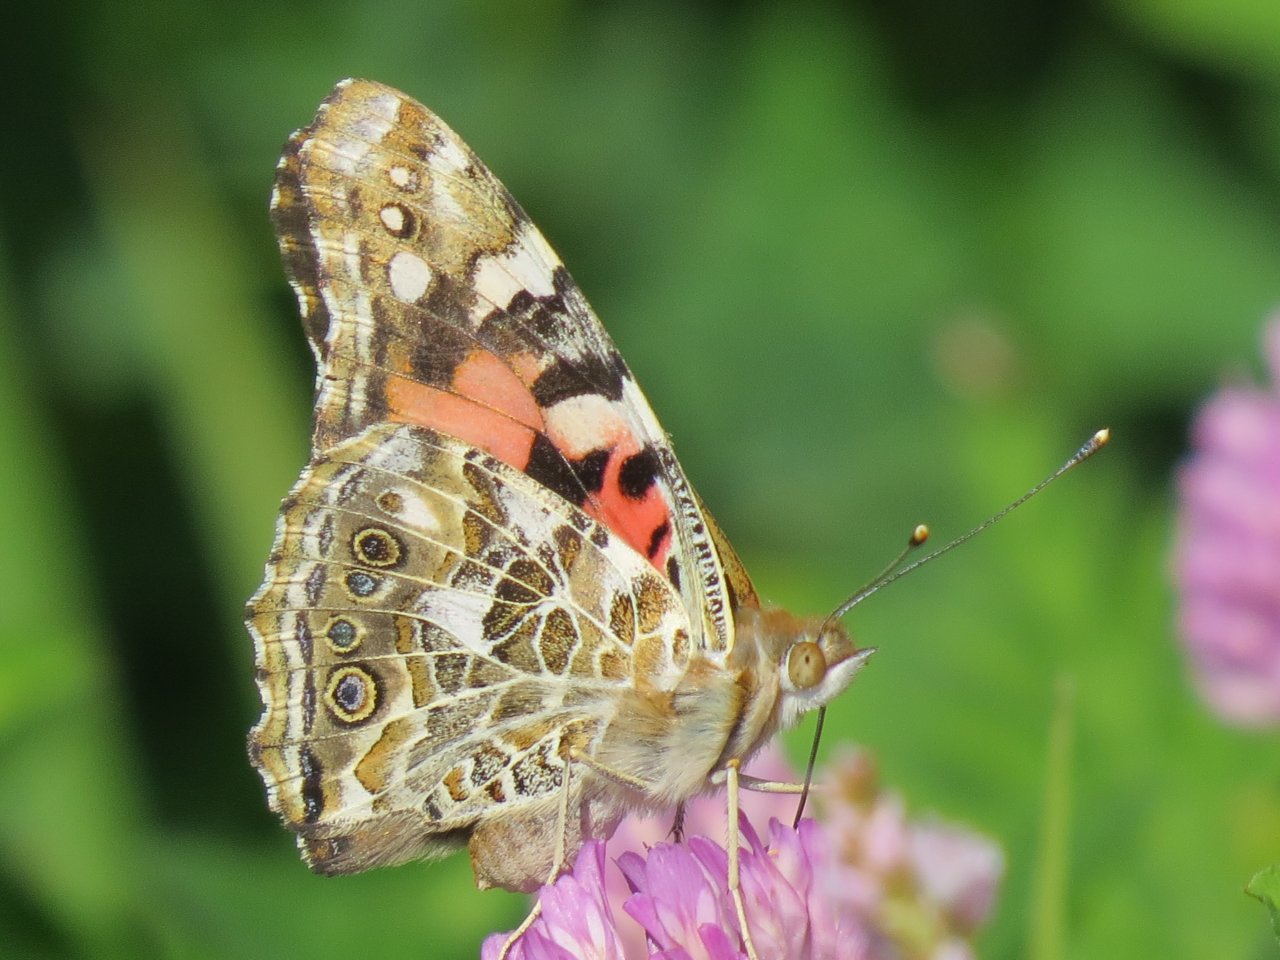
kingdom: Animalia
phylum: Arthropoda
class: Insecta
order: Lepidoptera
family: Nymphalidae
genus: Vanessa
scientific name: Vanessa cardui
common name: Painted Lady
